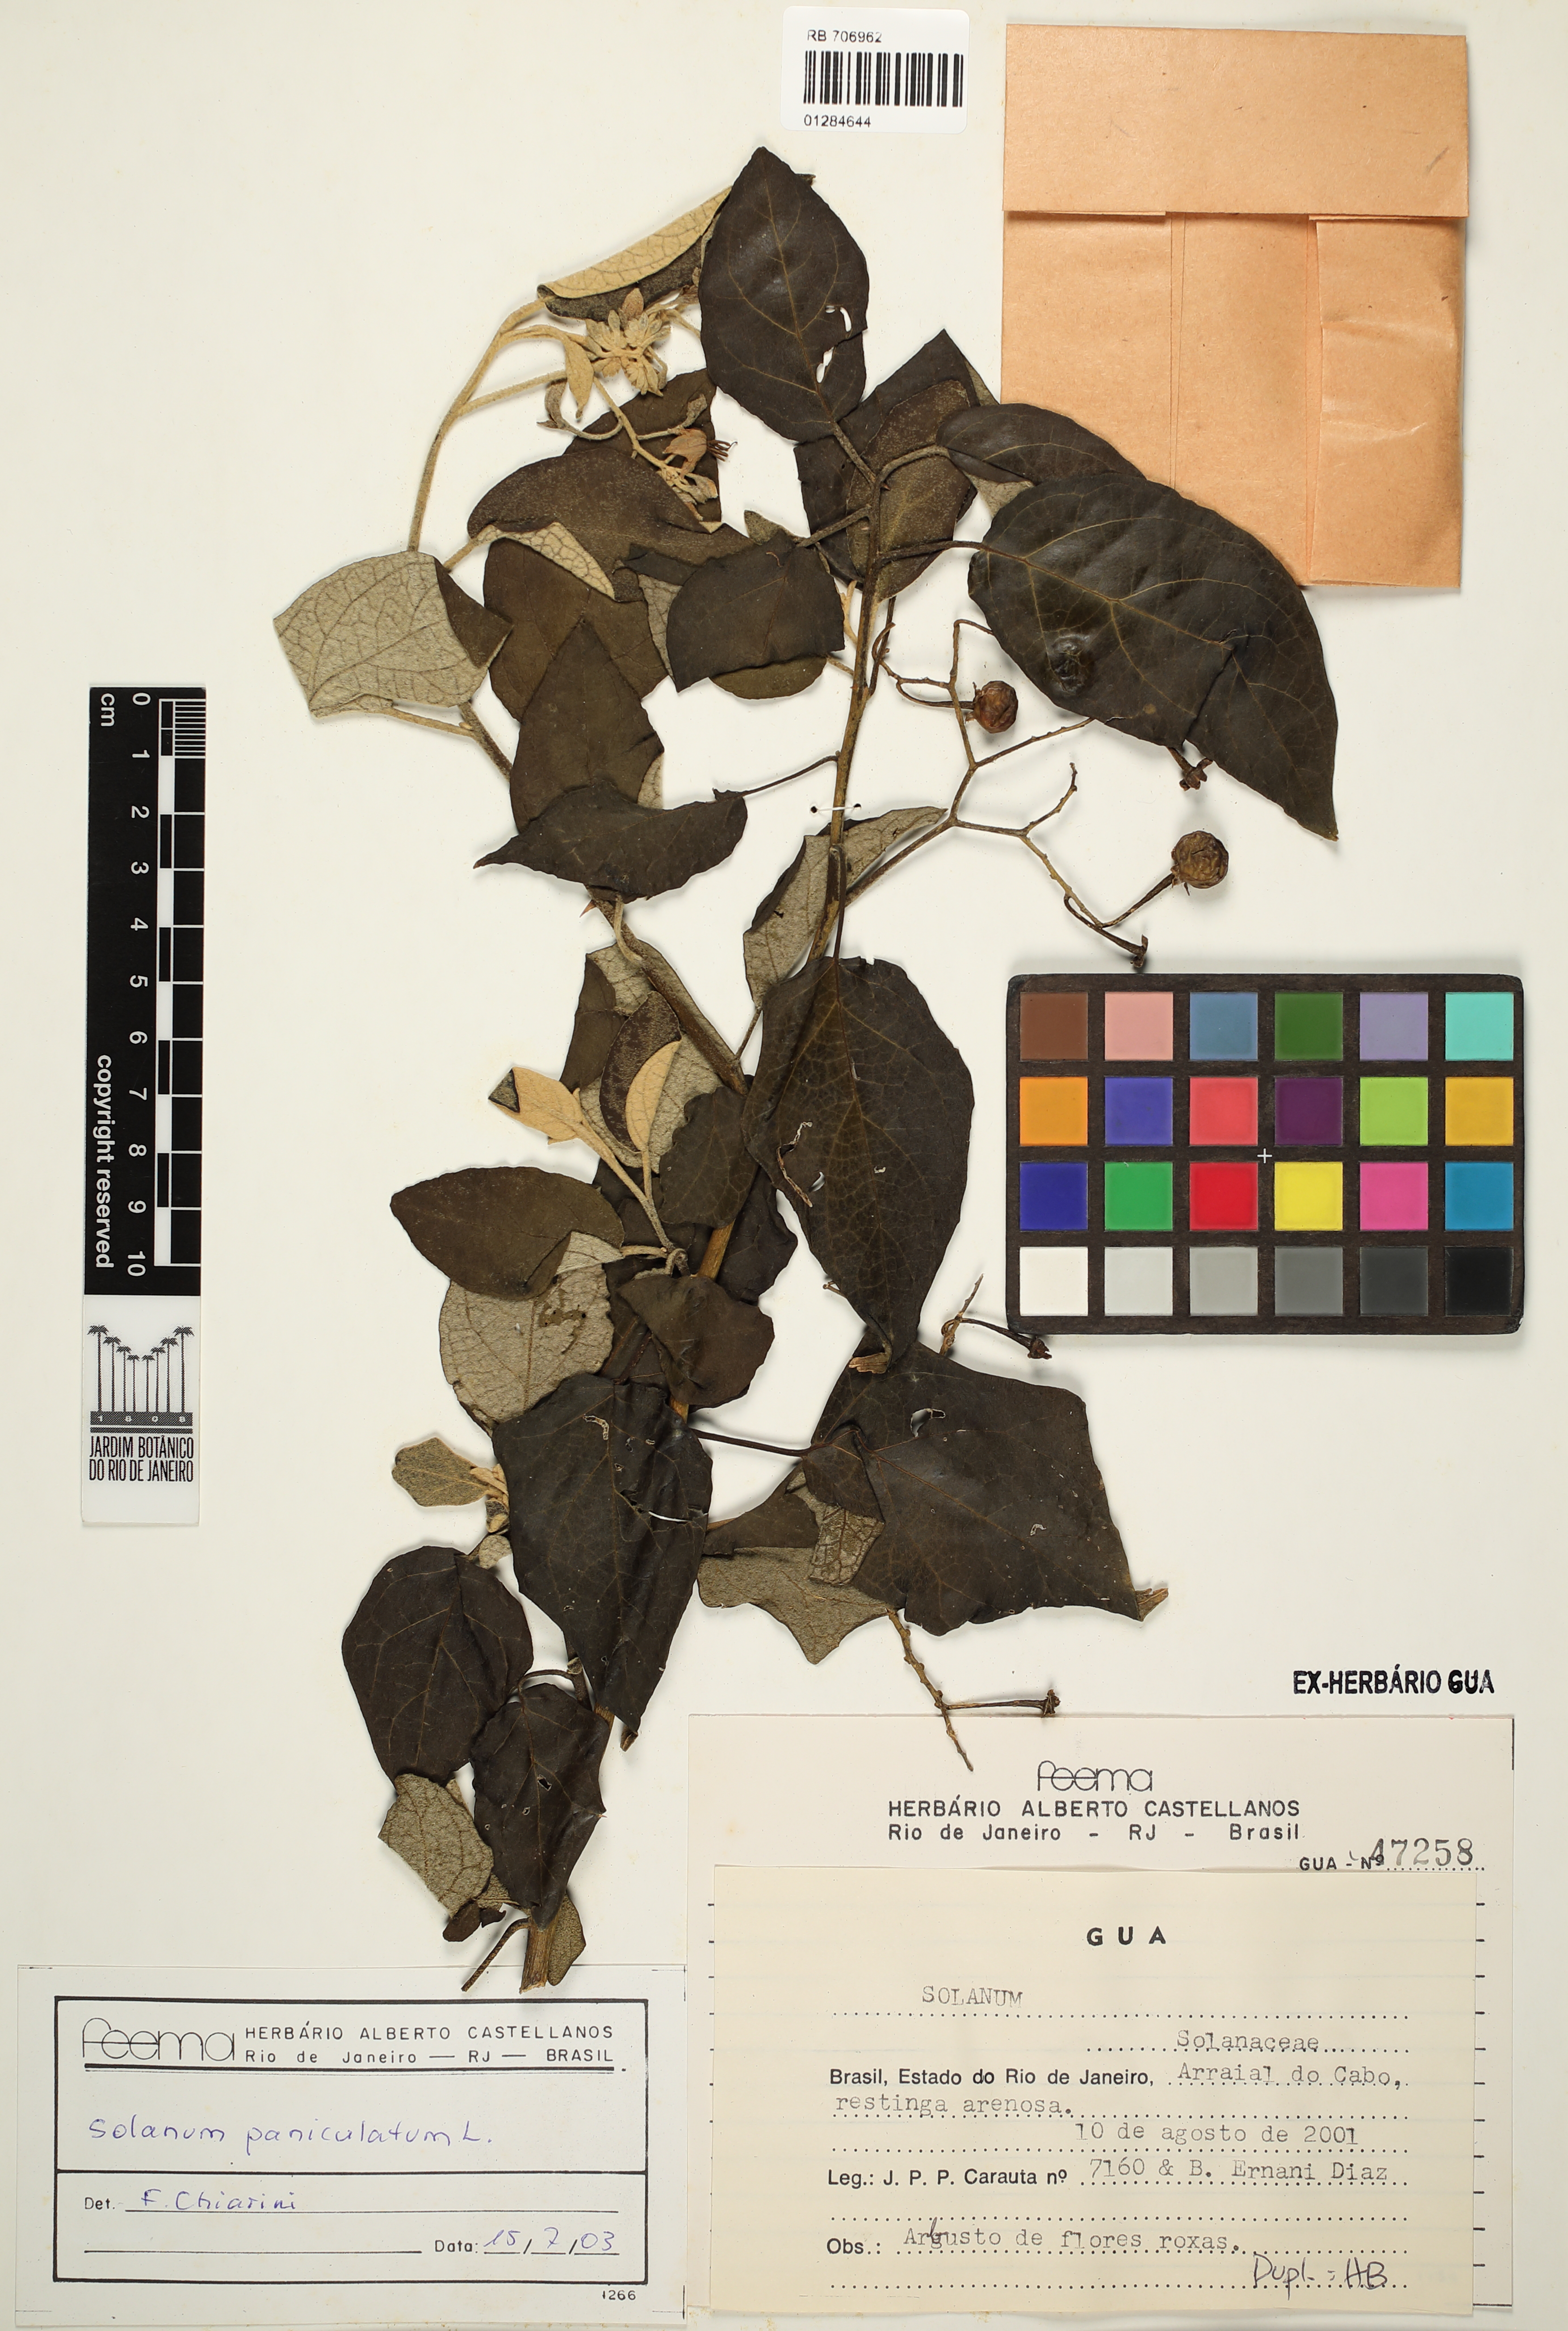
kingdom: Plantae
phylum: Tracheophyta
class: Magnoliopsida
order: Solanales
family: Solanaceae
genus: Solanum
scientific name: Solanum paniculatum
